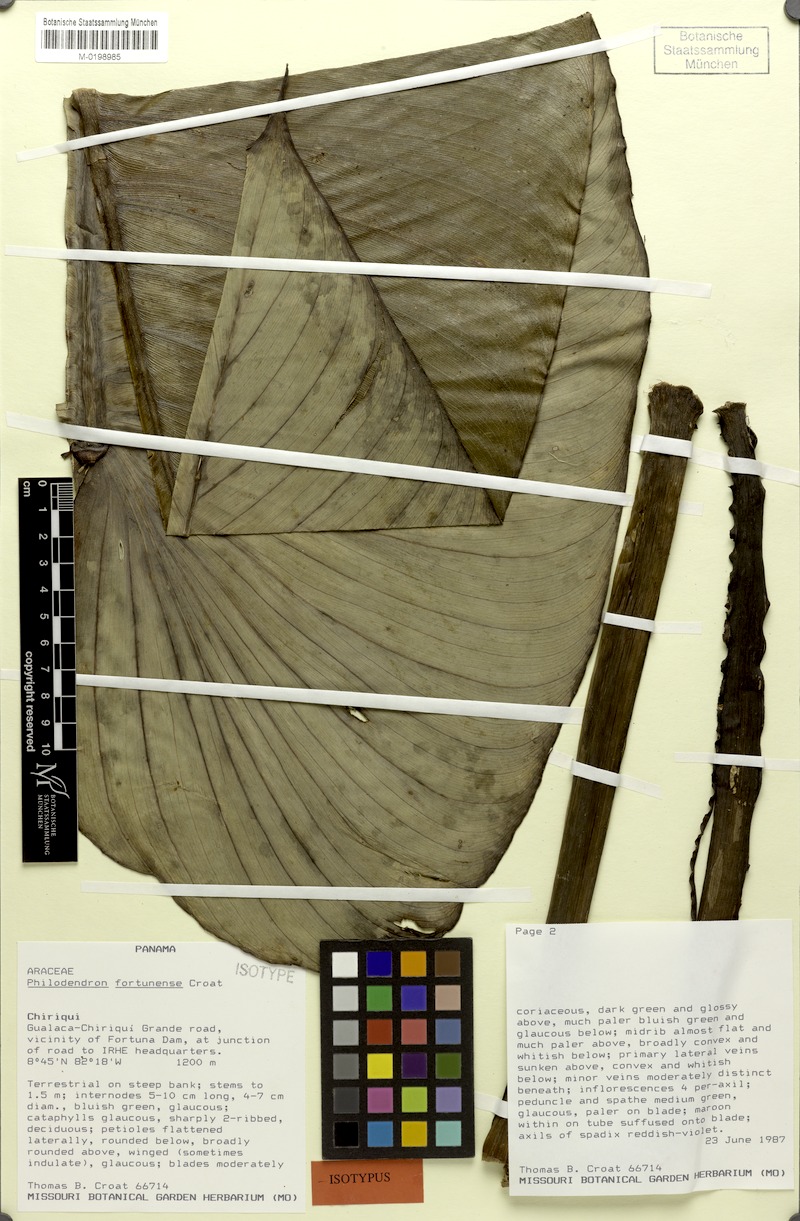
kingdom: Plantae
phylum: Tracheophyta
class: Liliopsida
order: Alismatales
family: Araceae
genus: Philodendron
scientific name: Philodendron fortunense
